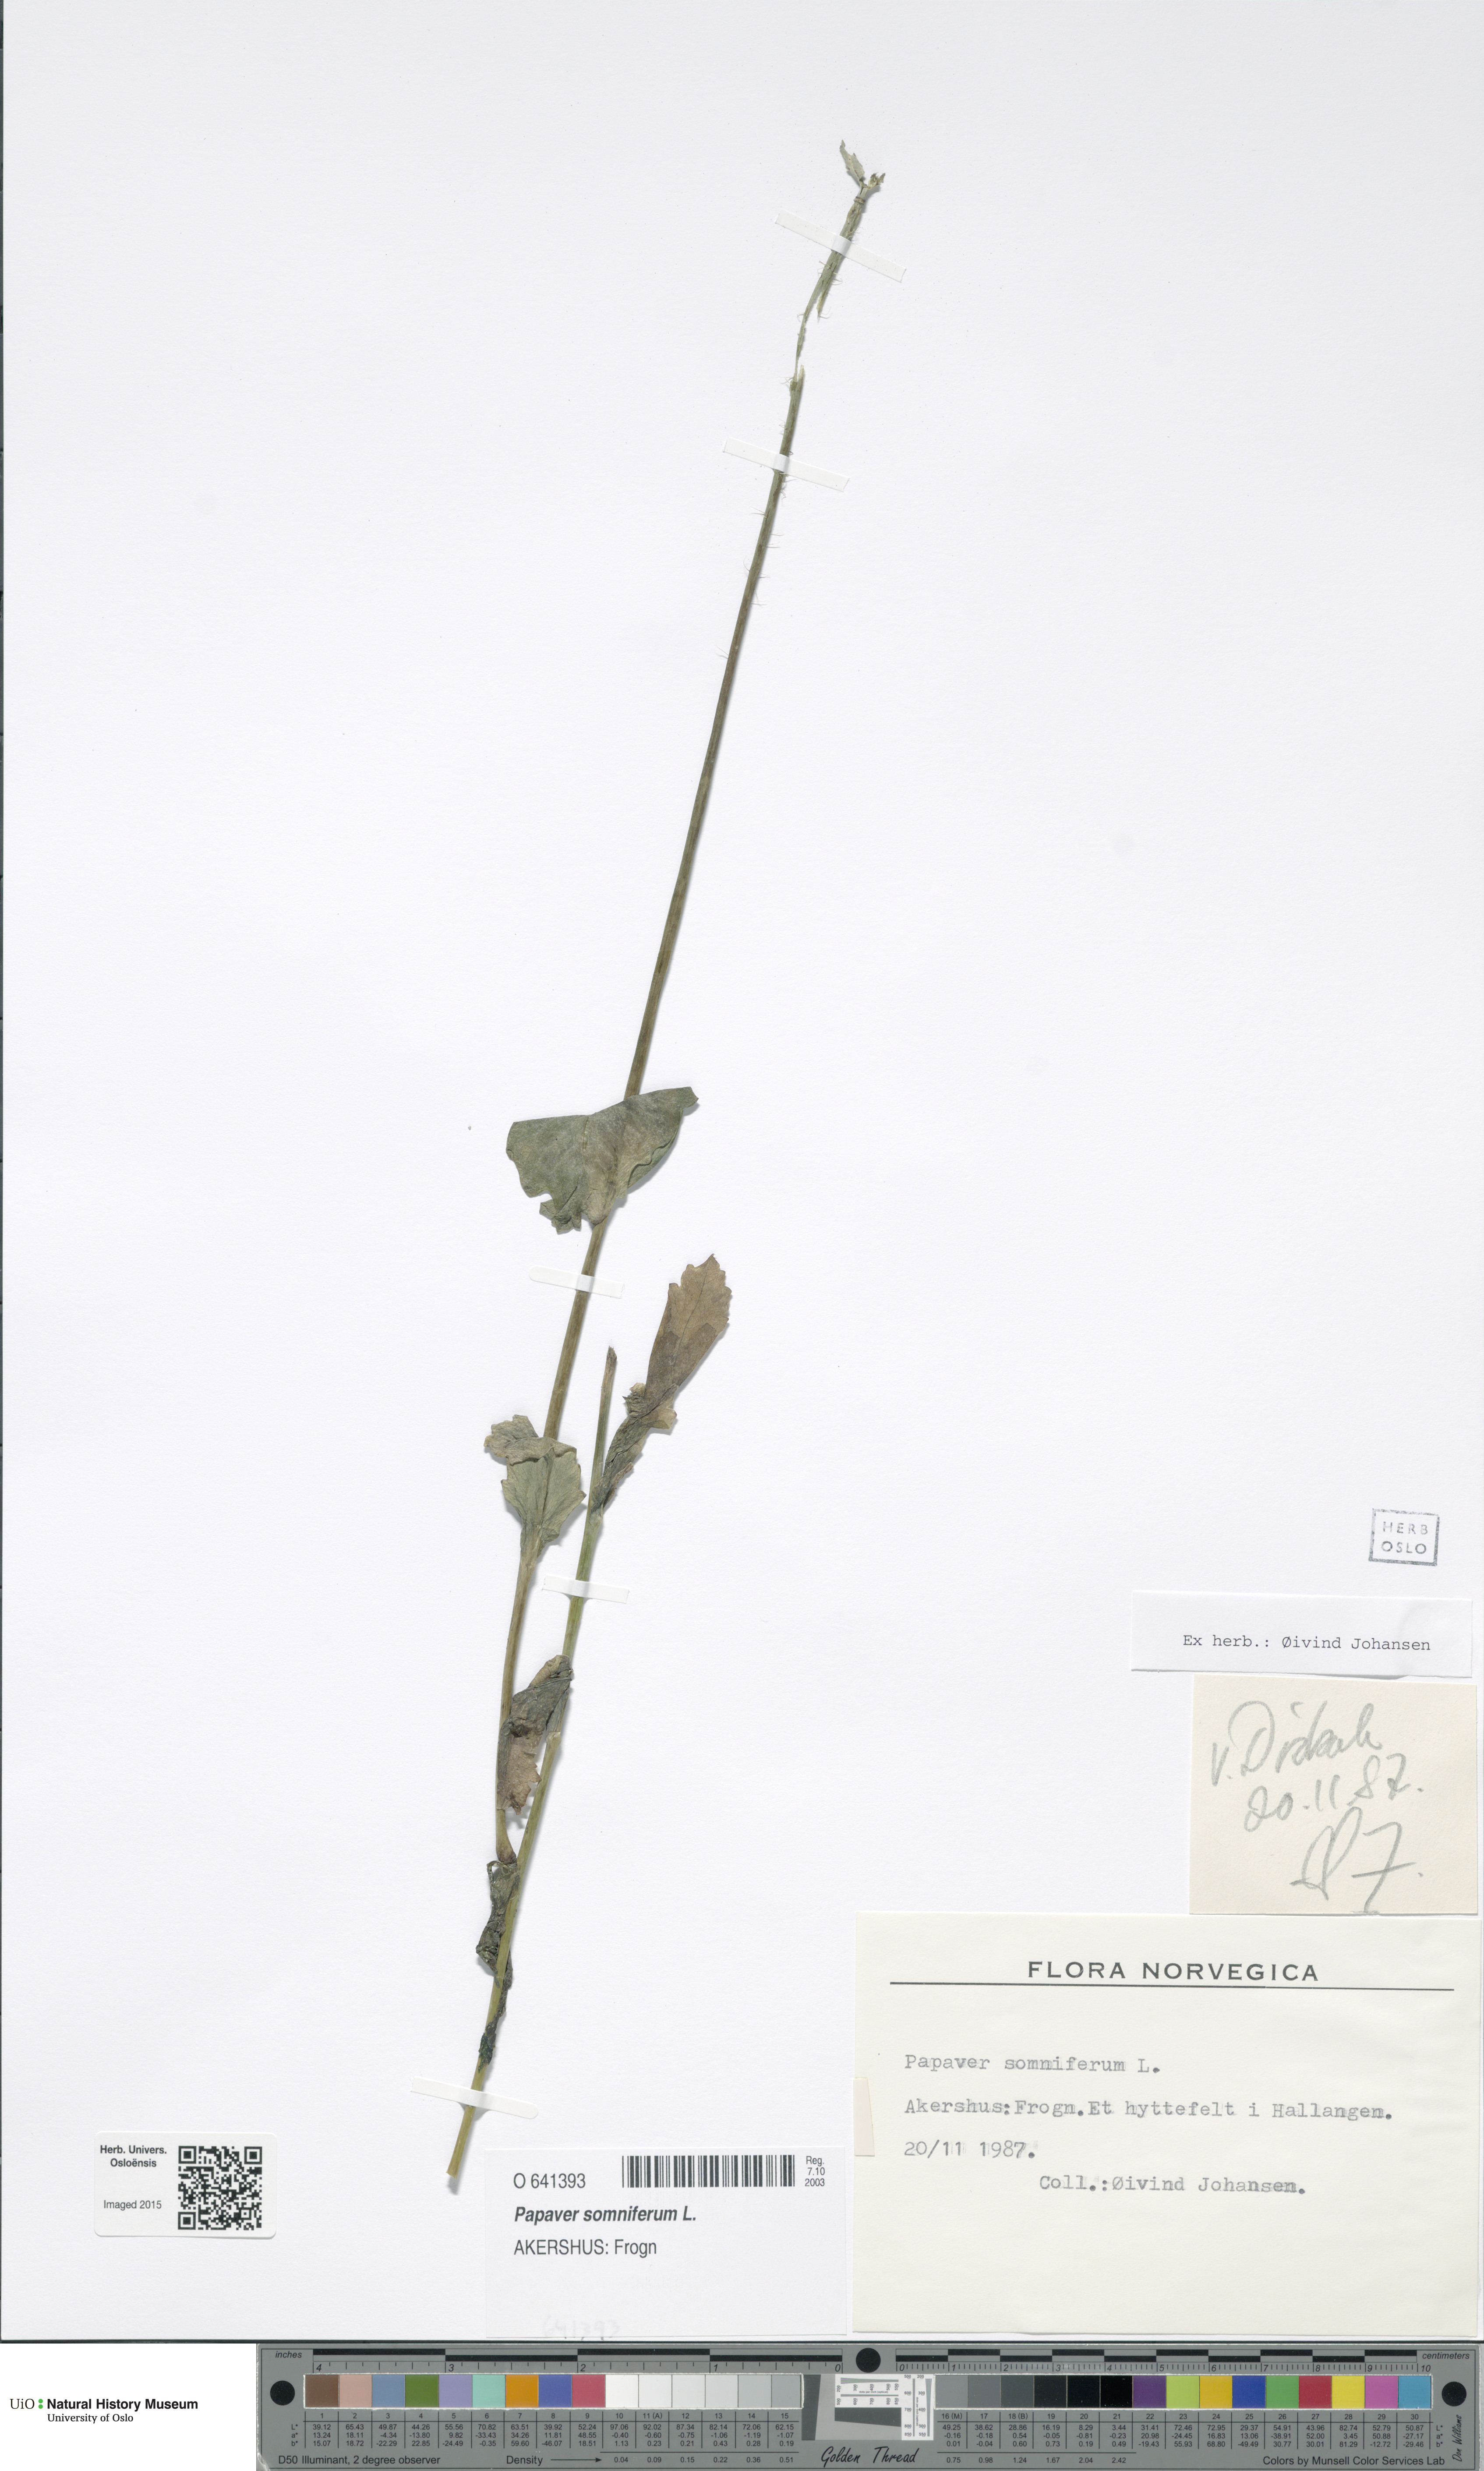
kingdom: Plantae
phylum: Tracheophyta
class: Magnoliopsida
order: Ranunculales
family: Papaveraceae
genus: Papaver
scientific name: Papaver somniferum
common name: Opium poppy
